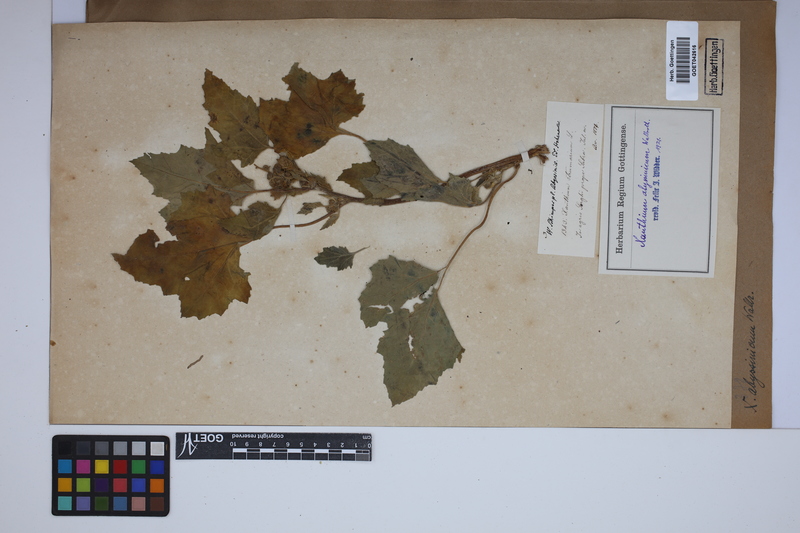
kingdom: Plantae
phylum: Tracheophyta
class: Magnoliopsida
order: Asterales
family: Asteraceae
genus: Xanthium
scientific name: Xanthium strumarium
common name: Rough cocklebur
